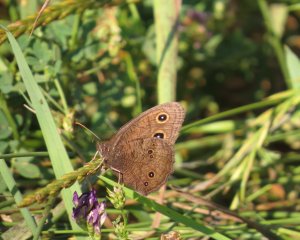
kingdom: Animalia
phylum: Arthropoda
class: Insecta
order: Lepidoptera
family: Nymphalidae
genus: Cercyonis
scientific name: Cercyonis pegala
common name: Common Wood-Nymph
